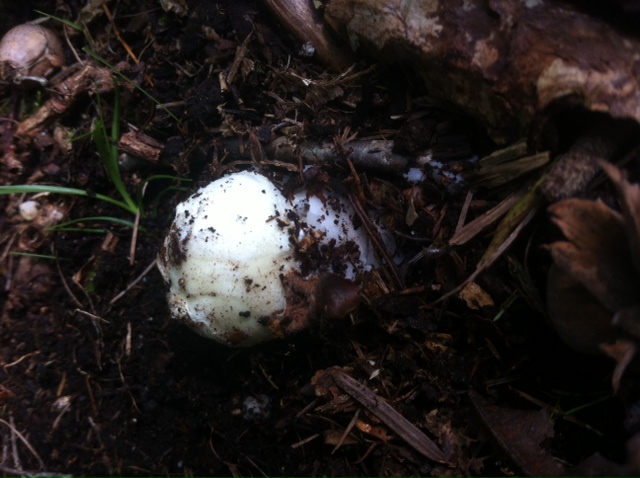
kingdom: Fungi
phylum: Basidiomycota
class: Agaricomycetes
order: Agaricales
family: Amanitaceae
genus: Amanita
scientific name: Amanita citrina
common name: kugleknoldet fluesvamp
